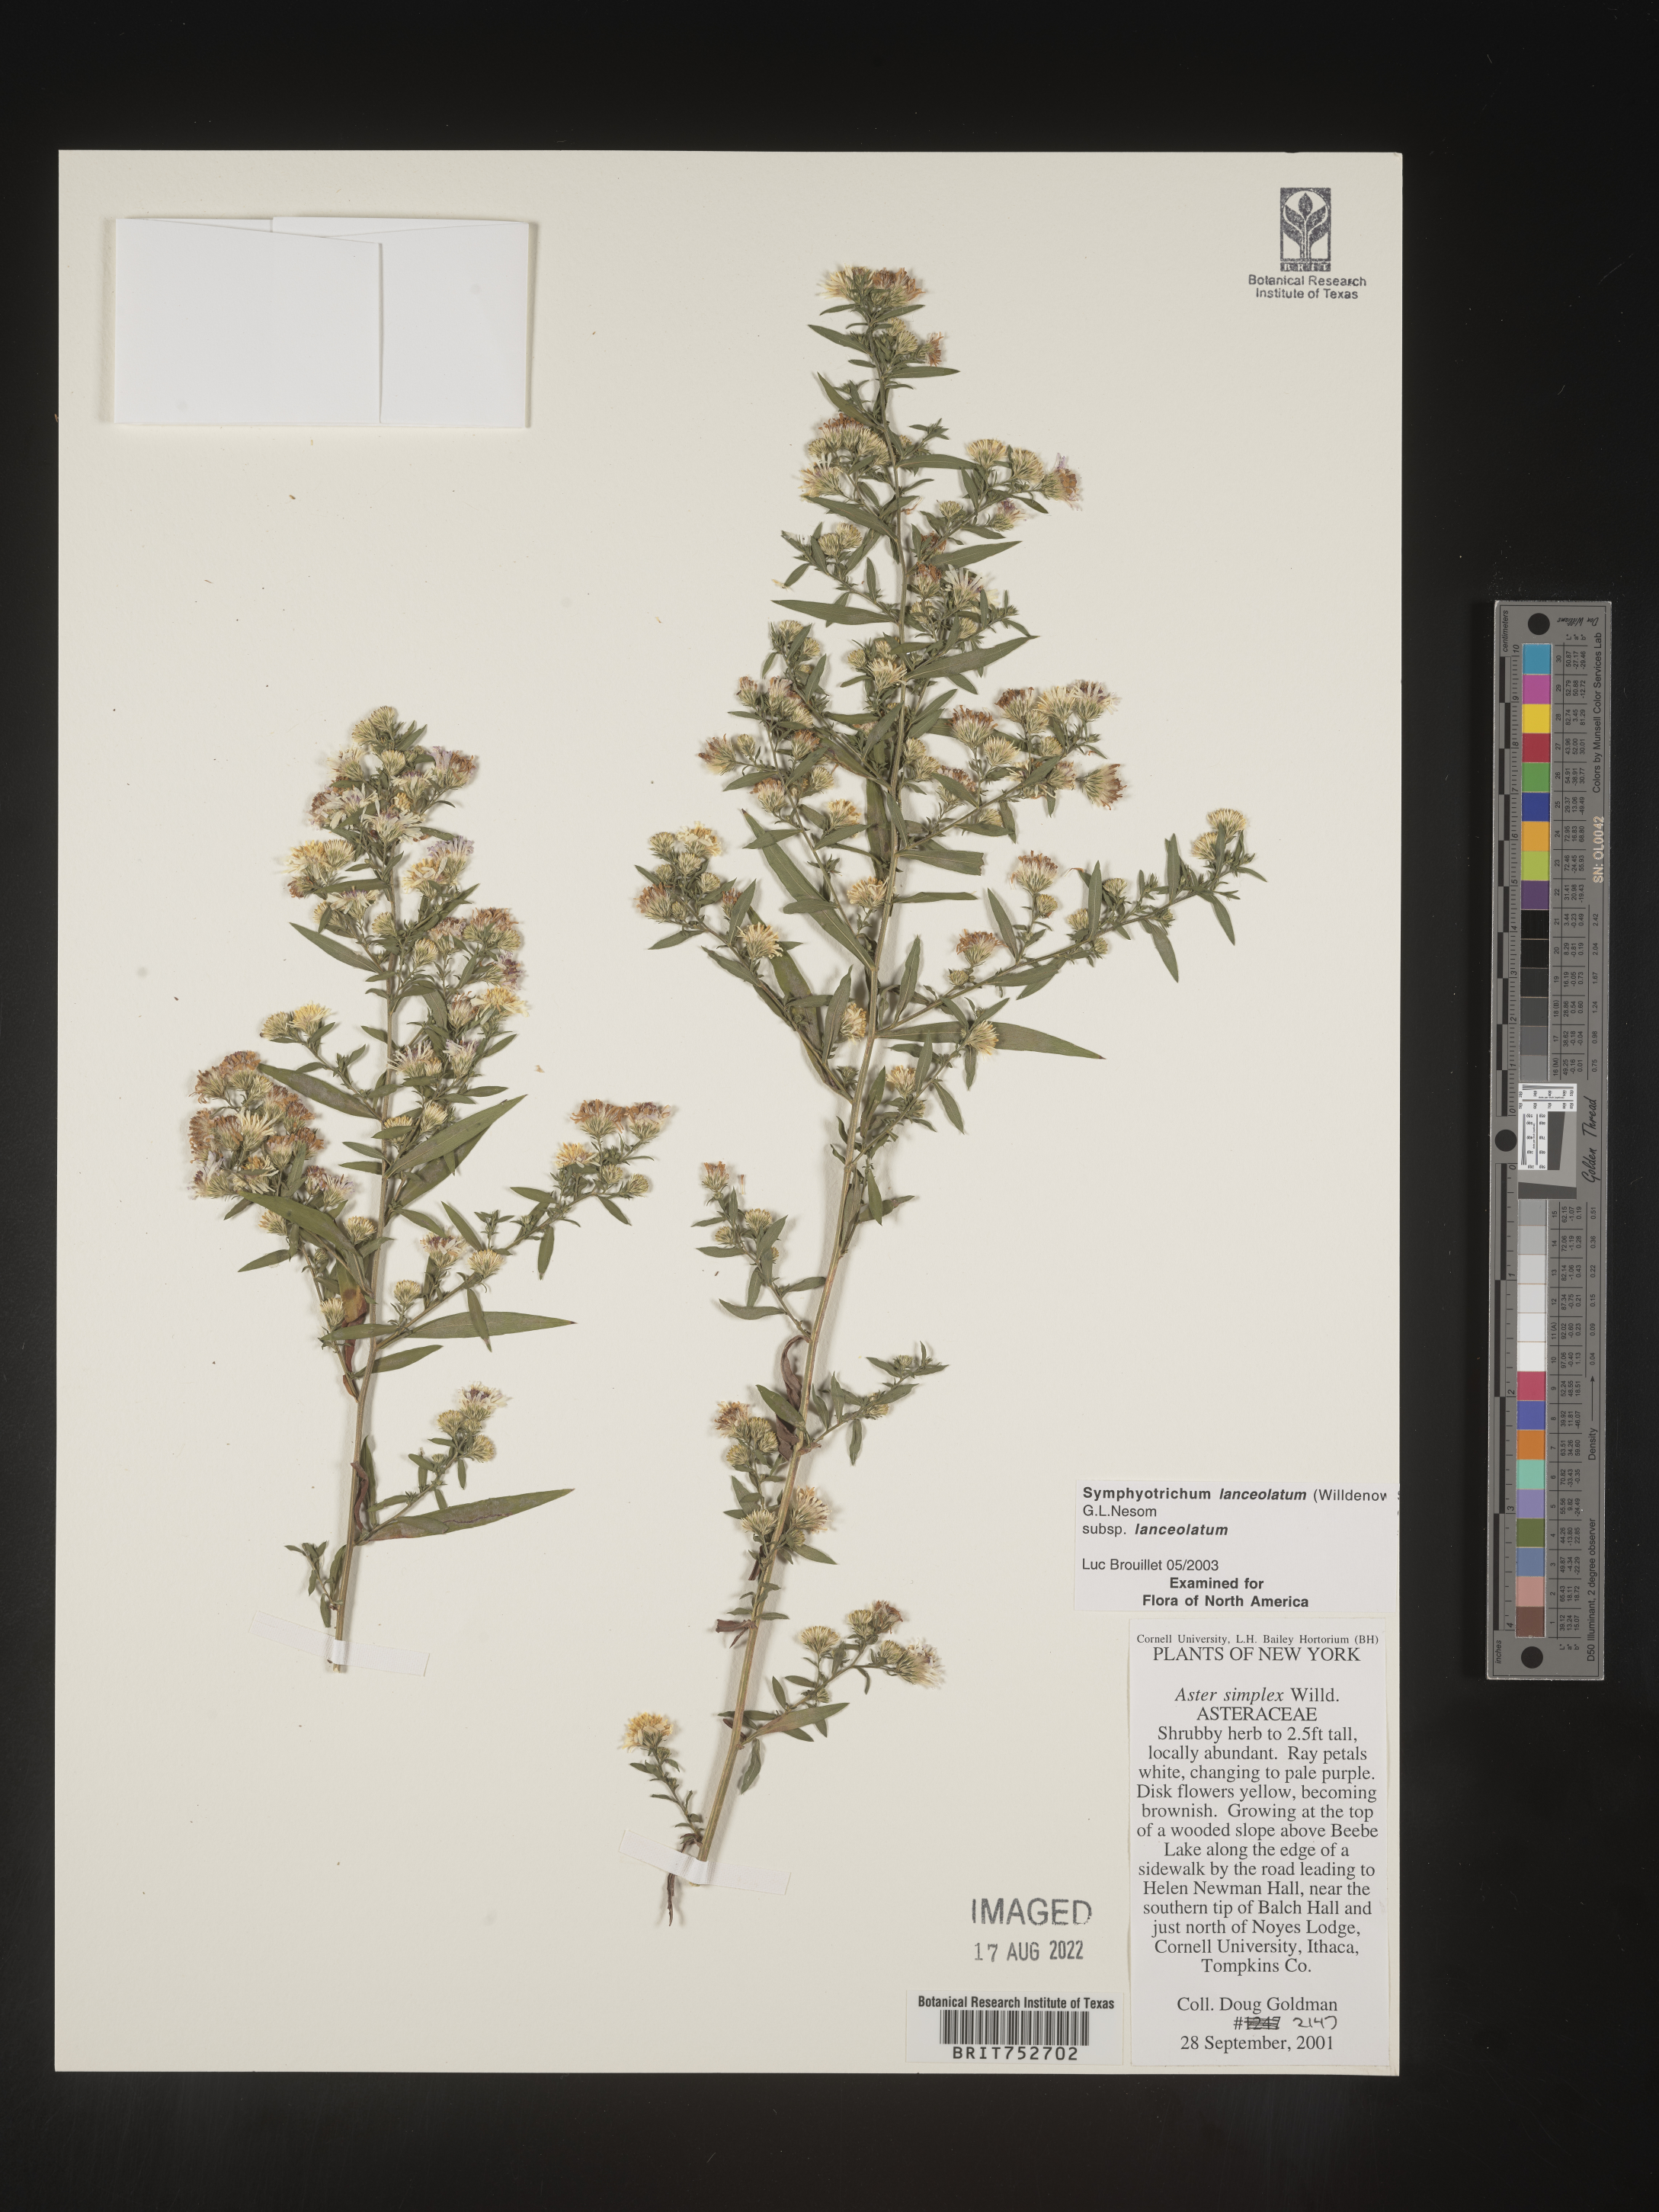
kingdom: Plantae
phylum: Tracheophyta
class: Magnoliopsida
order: Asterales
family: Asteraceae
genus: Symphyotrichum
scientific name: Symphyotrichum lanceolatum
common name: Panicled aster
